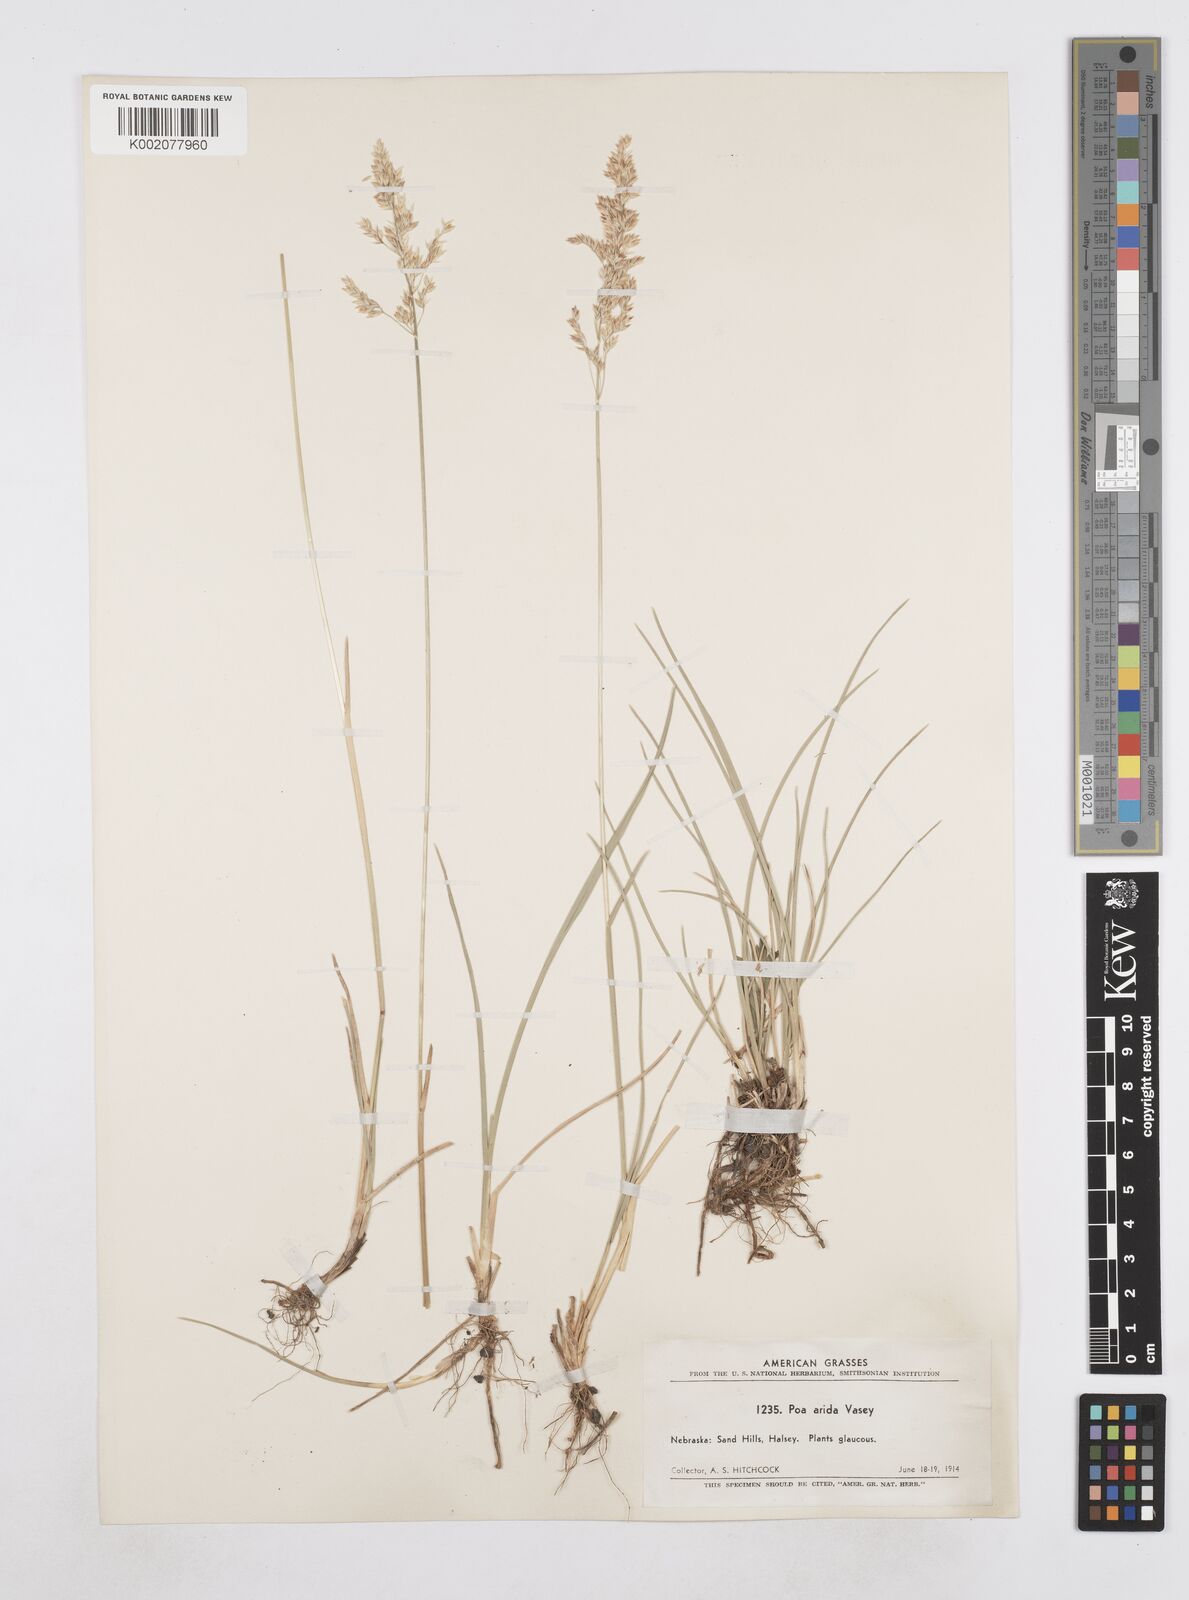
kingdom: Plantae
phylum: Tracheophyta
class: Liliopsida
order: Poales
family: Poaceae
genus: Poa
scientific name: Poa arida
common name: Plains bluegrass
